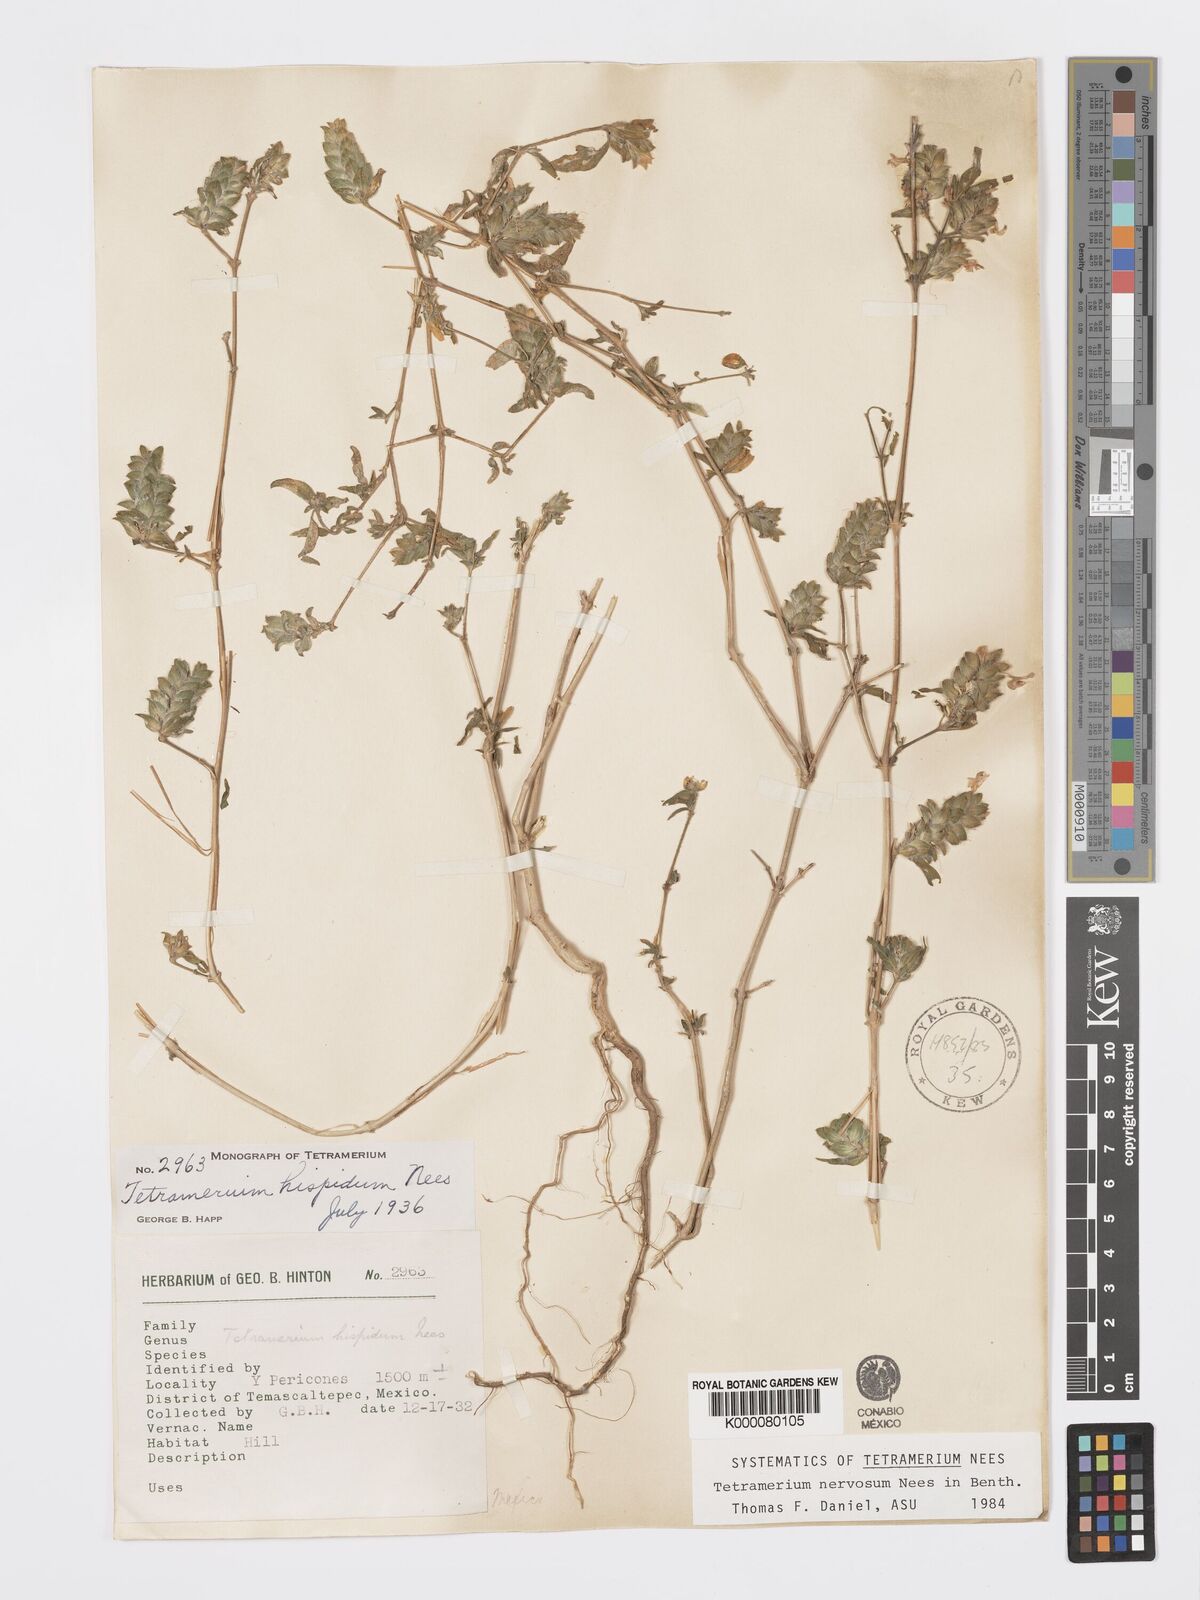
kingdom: Plantae
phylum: Tracheophyta
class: Magnoliopsida
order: Lamiales
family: Acanthaceae
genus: Tetramerium
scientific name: Tetramerium nervosum
